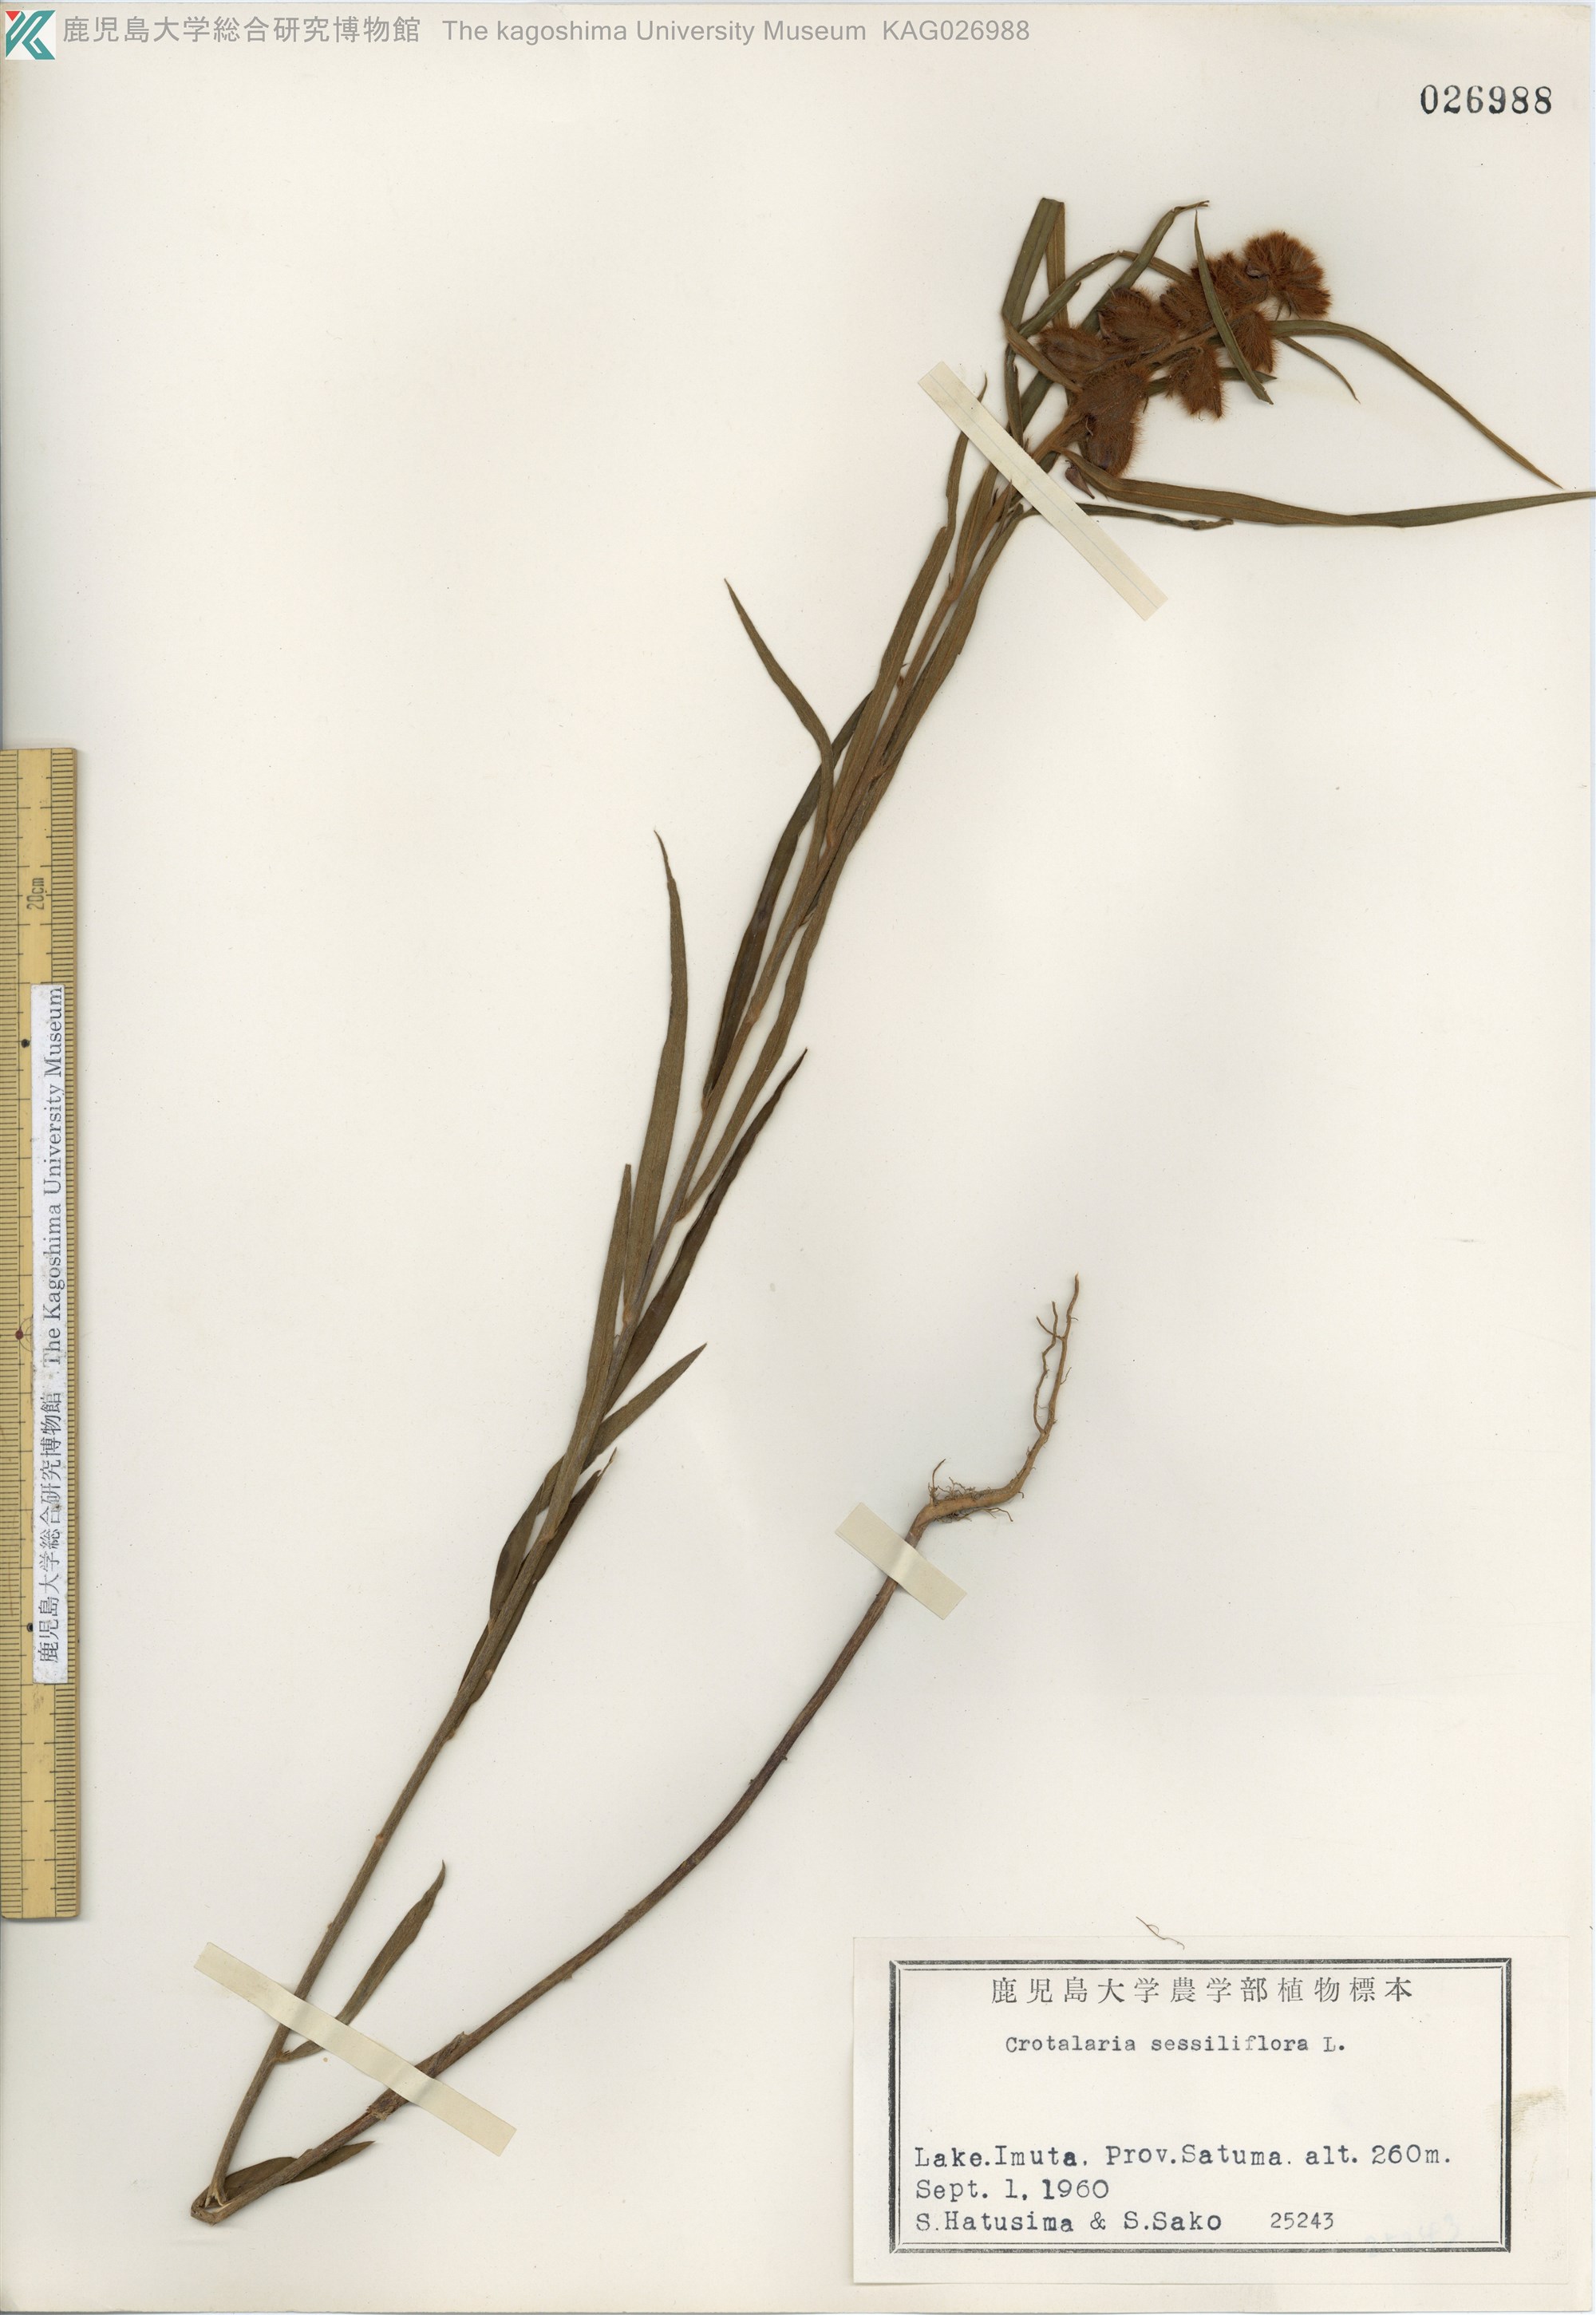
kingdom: Plantae
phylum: Tracheophyta
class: Magnoliopsida
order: Fabales
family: Fabaceae
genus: Crotalaria
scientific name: Crotalaria sessiliflora
